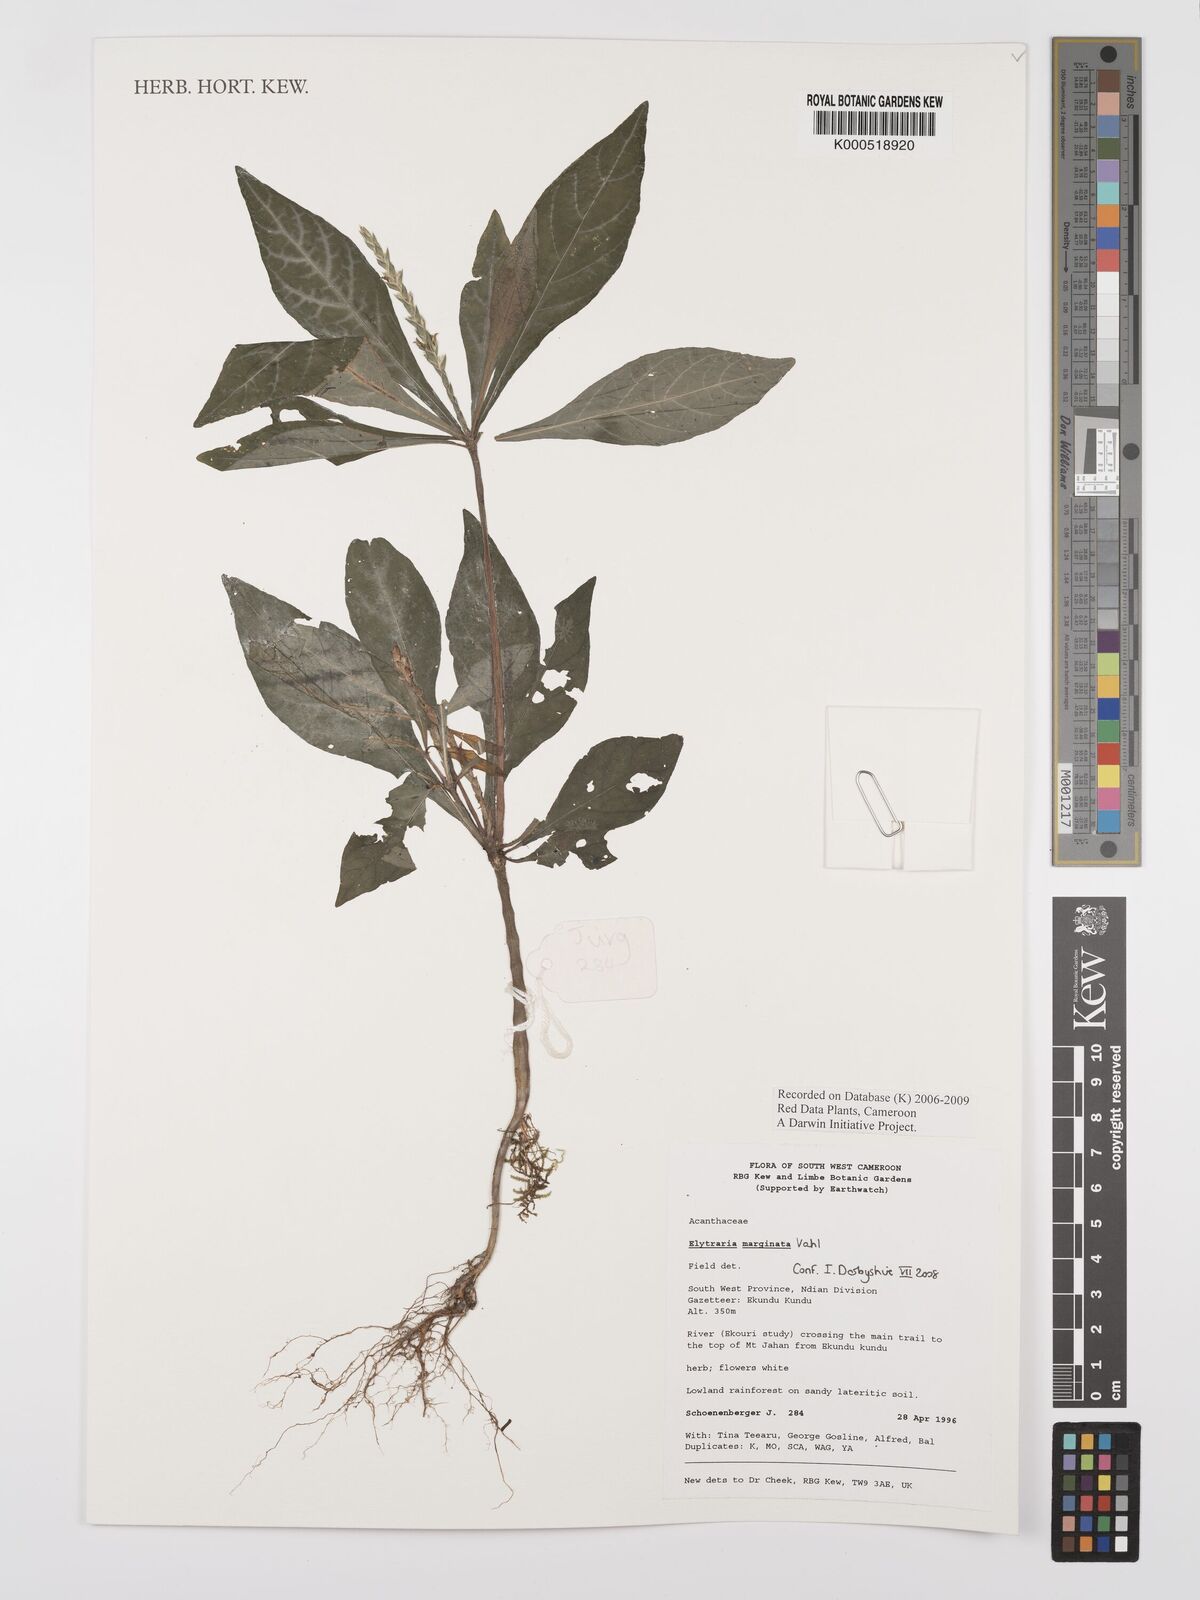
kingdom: Plantae
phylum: Tracheophyta
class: Magnoliopsida
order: Lamiales
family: Acanthaceae
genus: Elytraria
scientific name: Elytraria marginata
